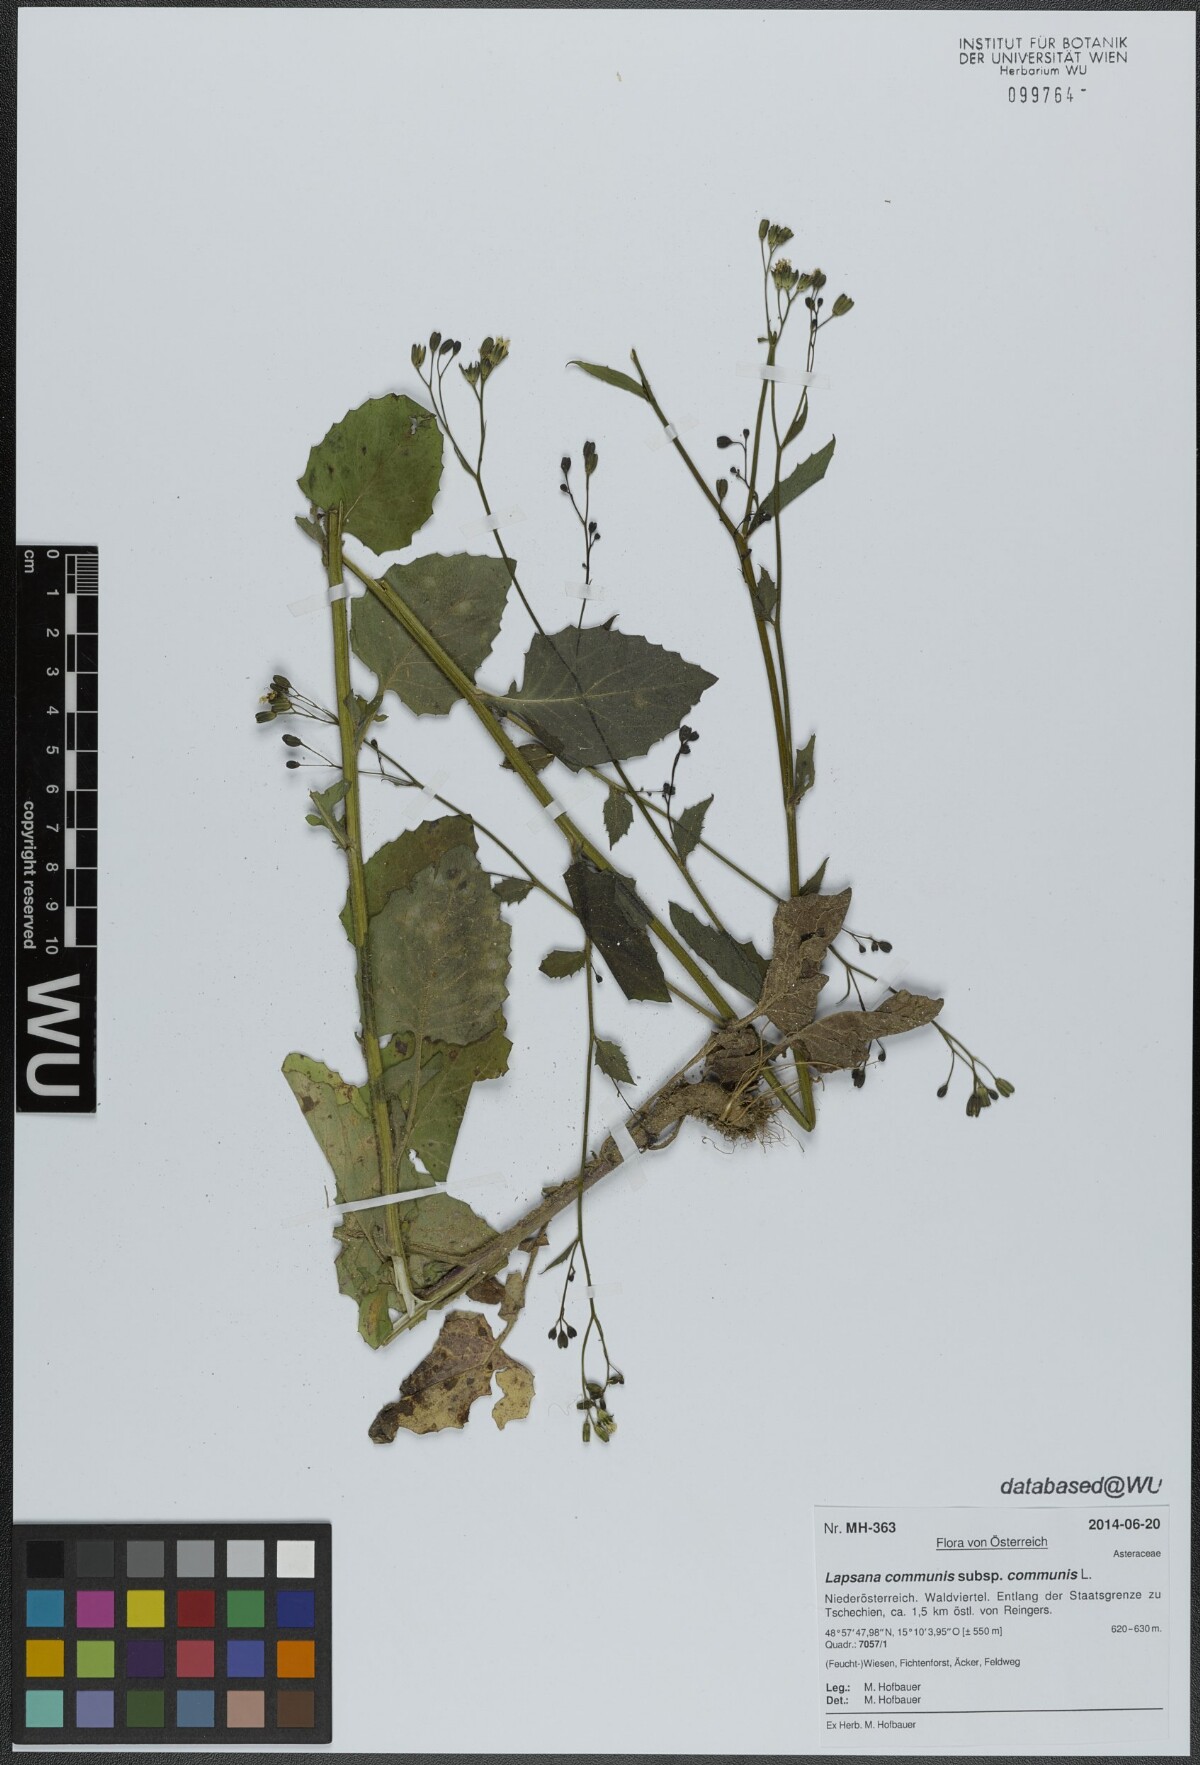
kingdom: Plantae
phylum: Tracheophyta
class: Magnoliopsida
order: Asterales
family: Asteraceae
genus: Lapsana
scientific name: Lapsana communis
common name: Nipplewort
